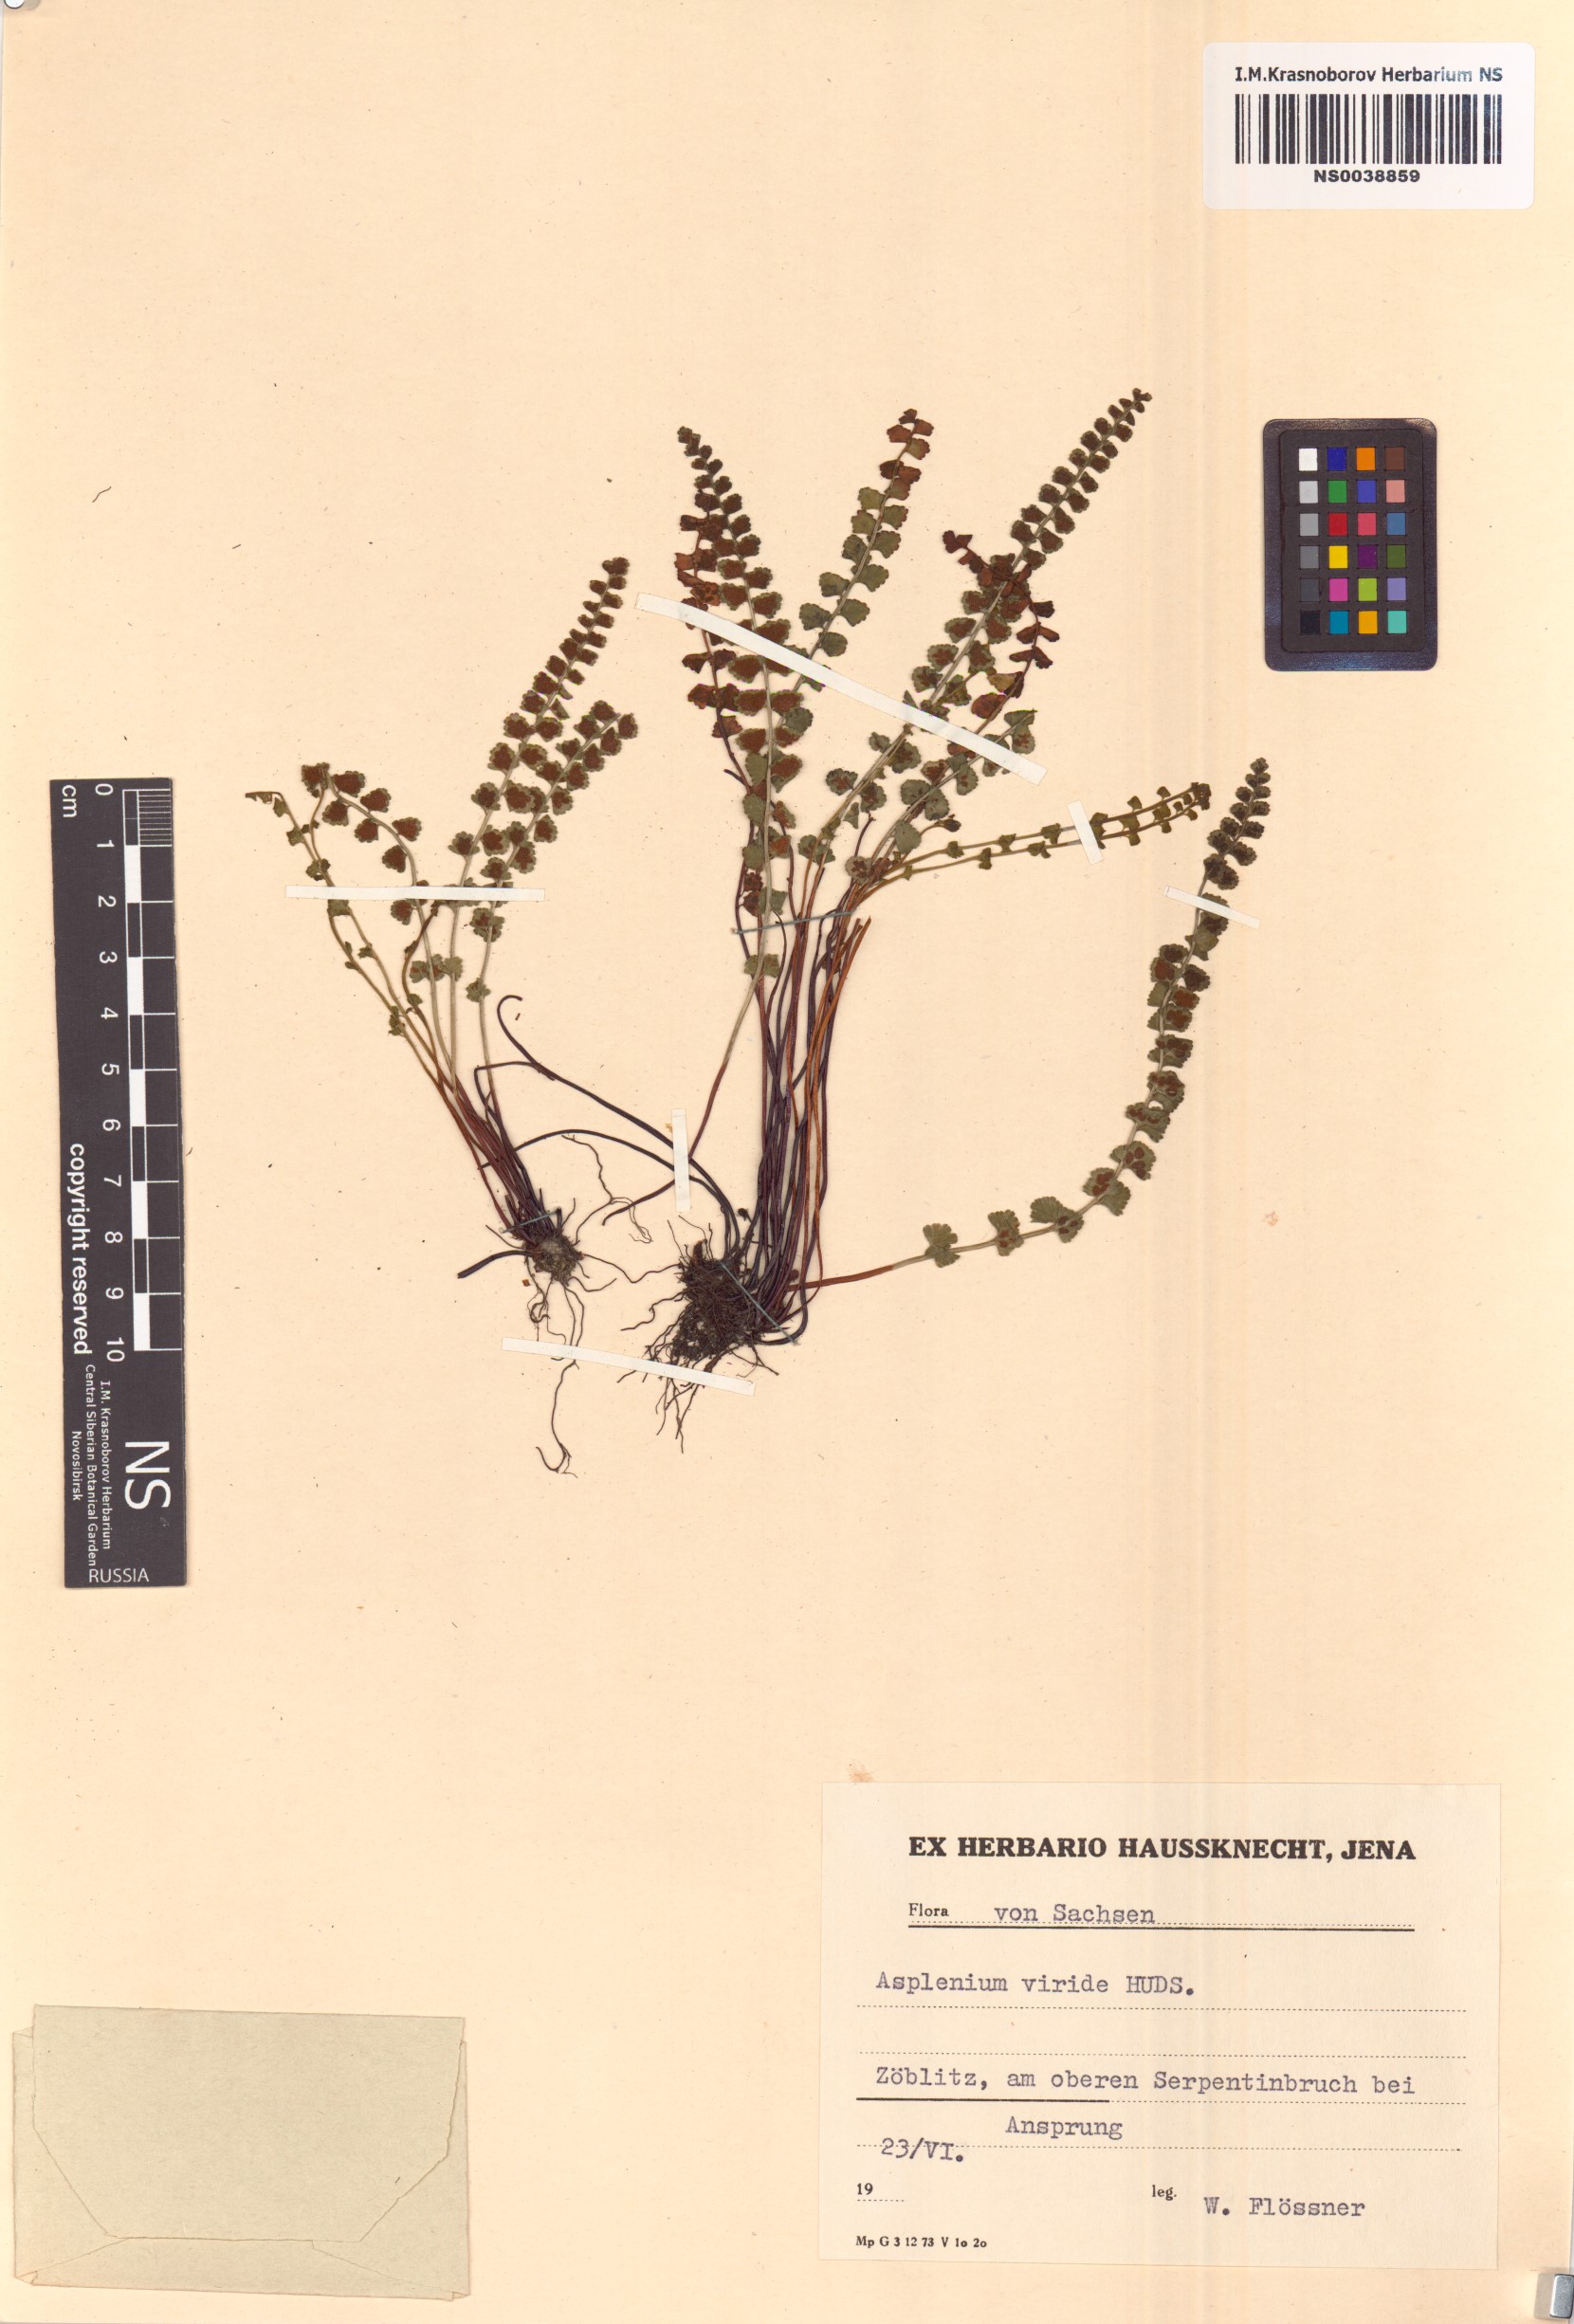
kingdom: Plantae
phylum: Tracheophyta
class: Polypodiopsida
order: Polypodiales
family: Aspleniaceae
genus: Asplenium
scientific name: Asplenium viride
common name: Green spleenwort
